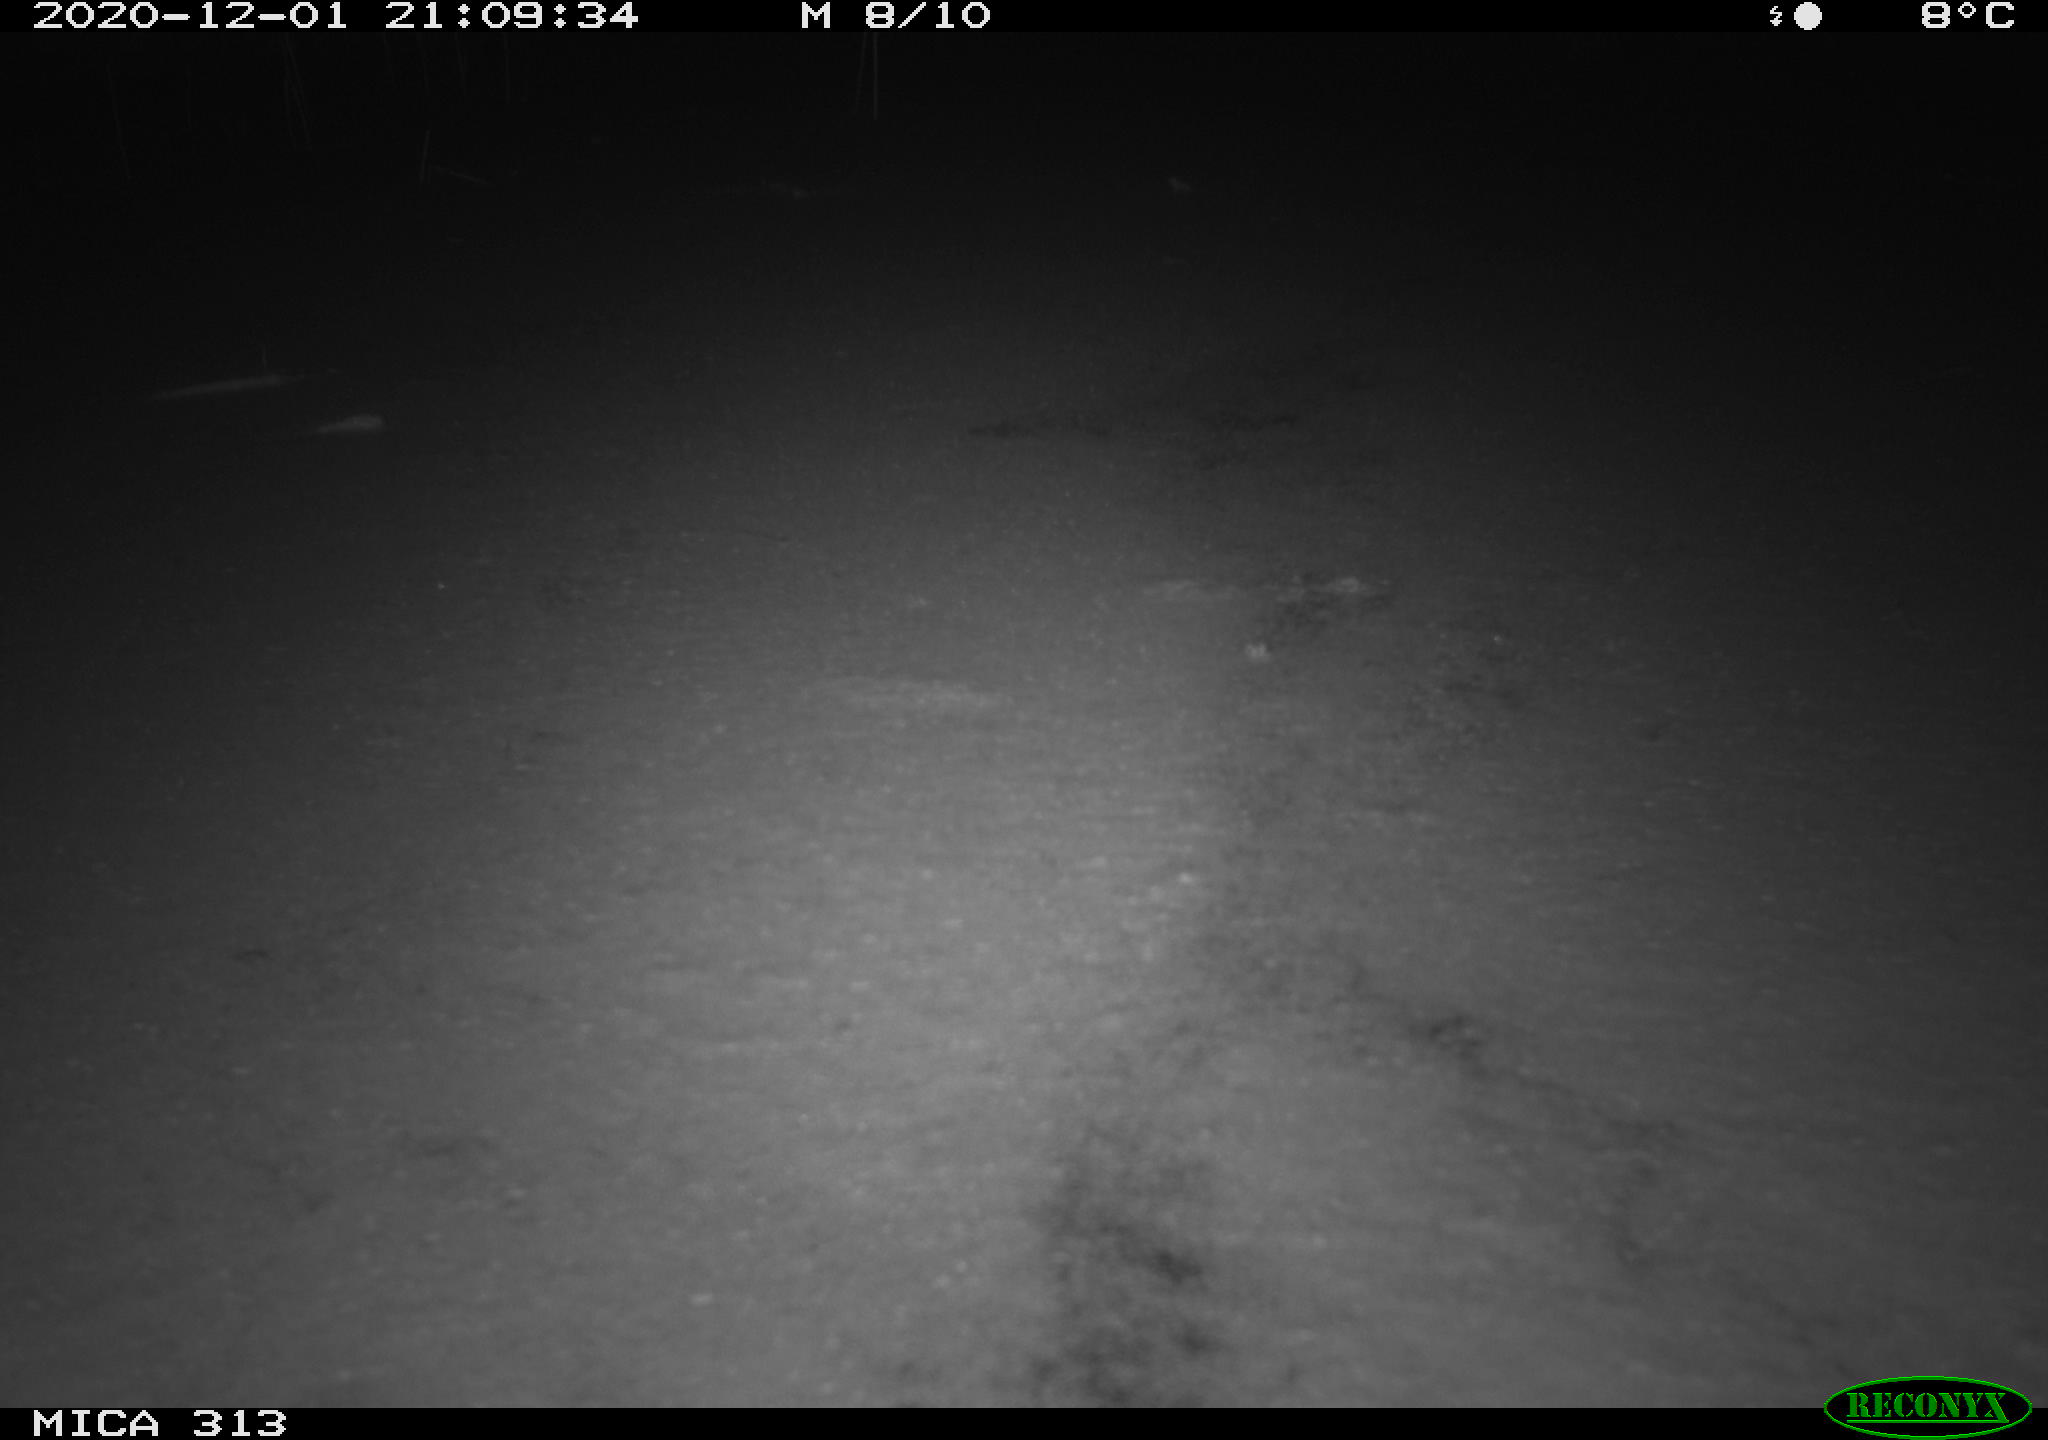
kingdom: Animalia
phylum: Chordata
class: Aves
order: Gruiformes
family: Rallidae
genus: Fulica
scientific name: Fulica atra
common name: Eurasian coot
